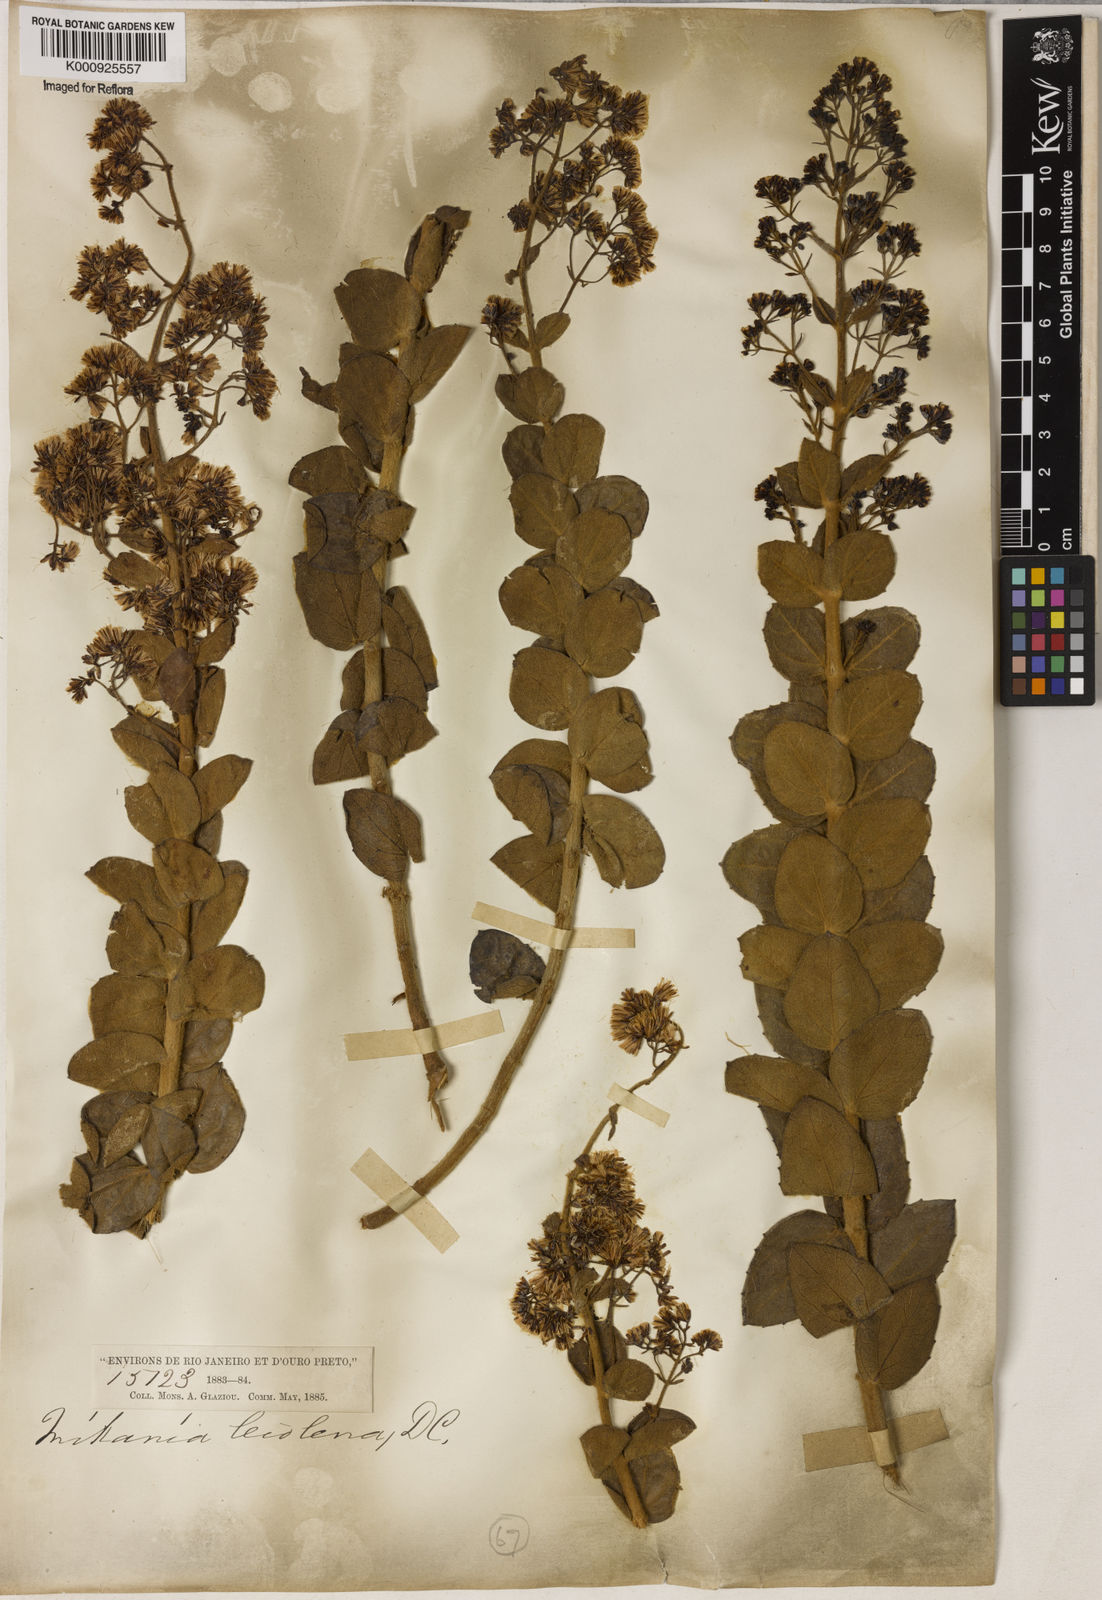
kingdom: Plantae
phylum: Tracheophyta
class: Magnoliopsida
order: Asterales
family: Asteraceae
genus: Mikania
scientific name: Mikania leiolaena
